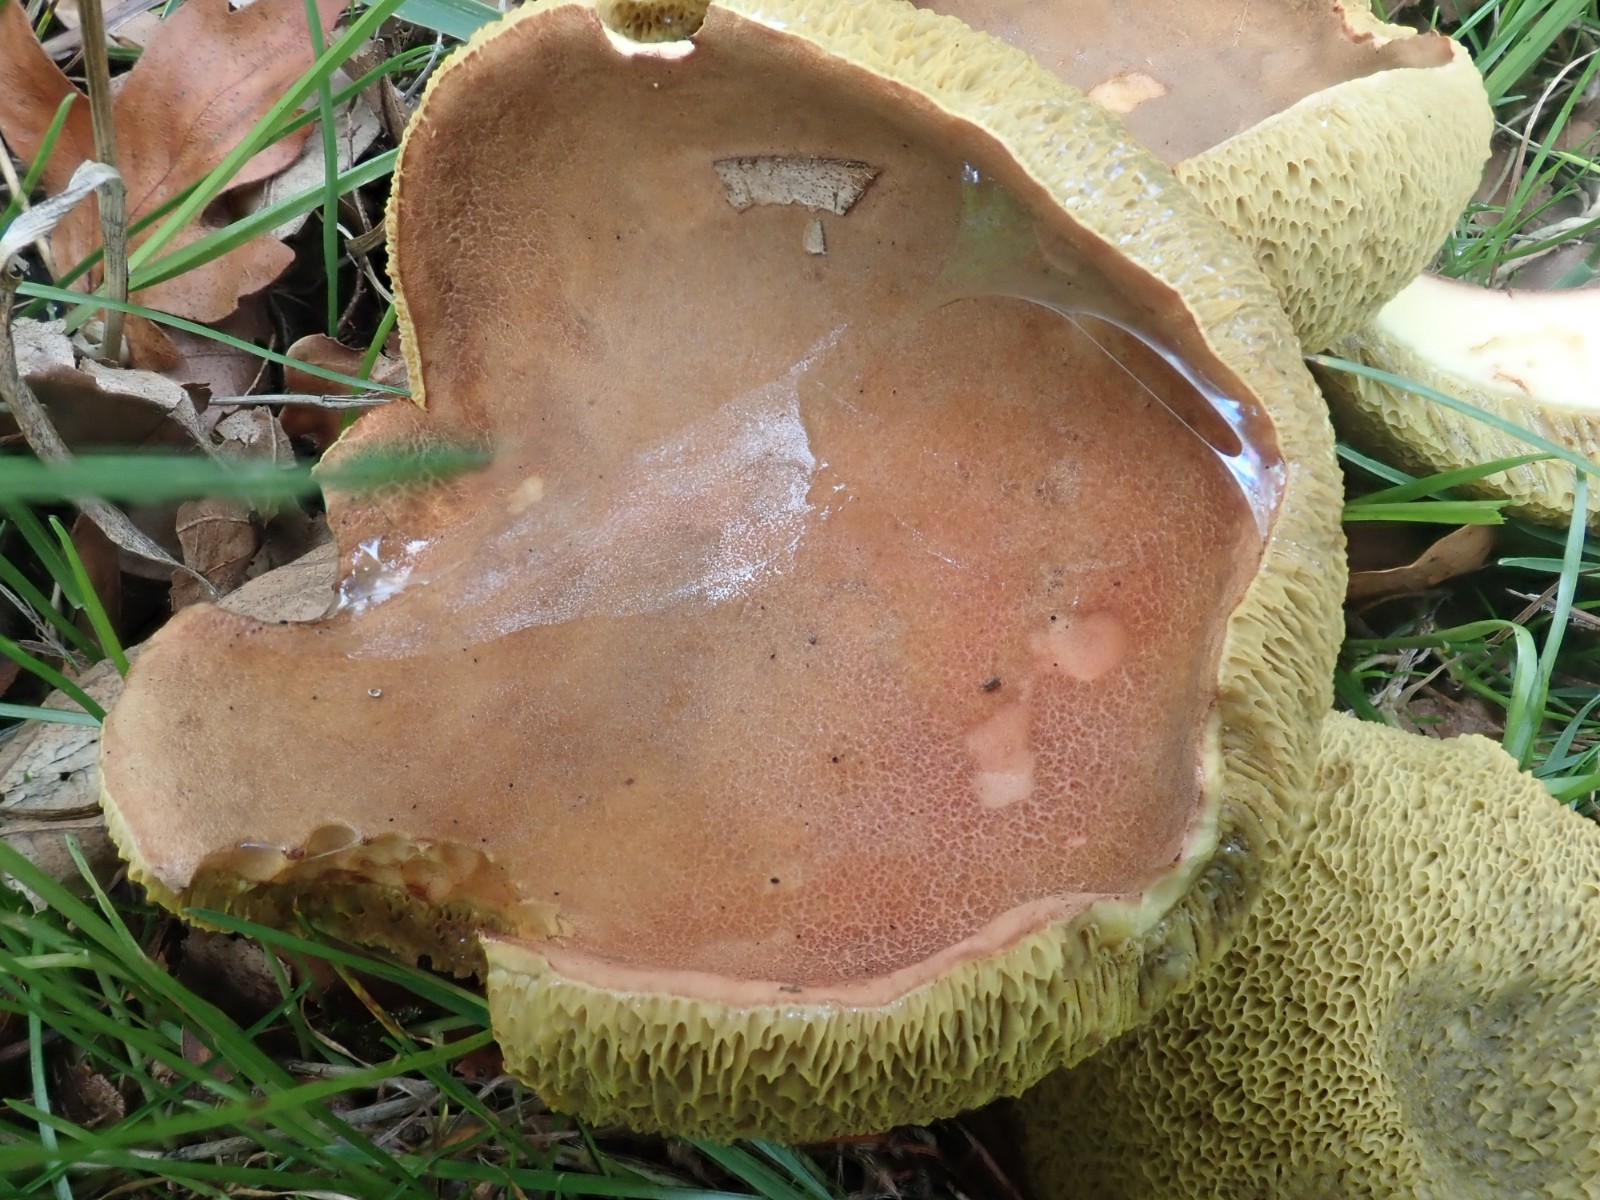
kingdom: Fungi
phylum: Basidiomycota
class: Agaricomycetes
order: Boletales
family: Boletaceae
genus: Hortiboletus
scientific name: Hortiboletus engelii
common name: fersken-rørhat
